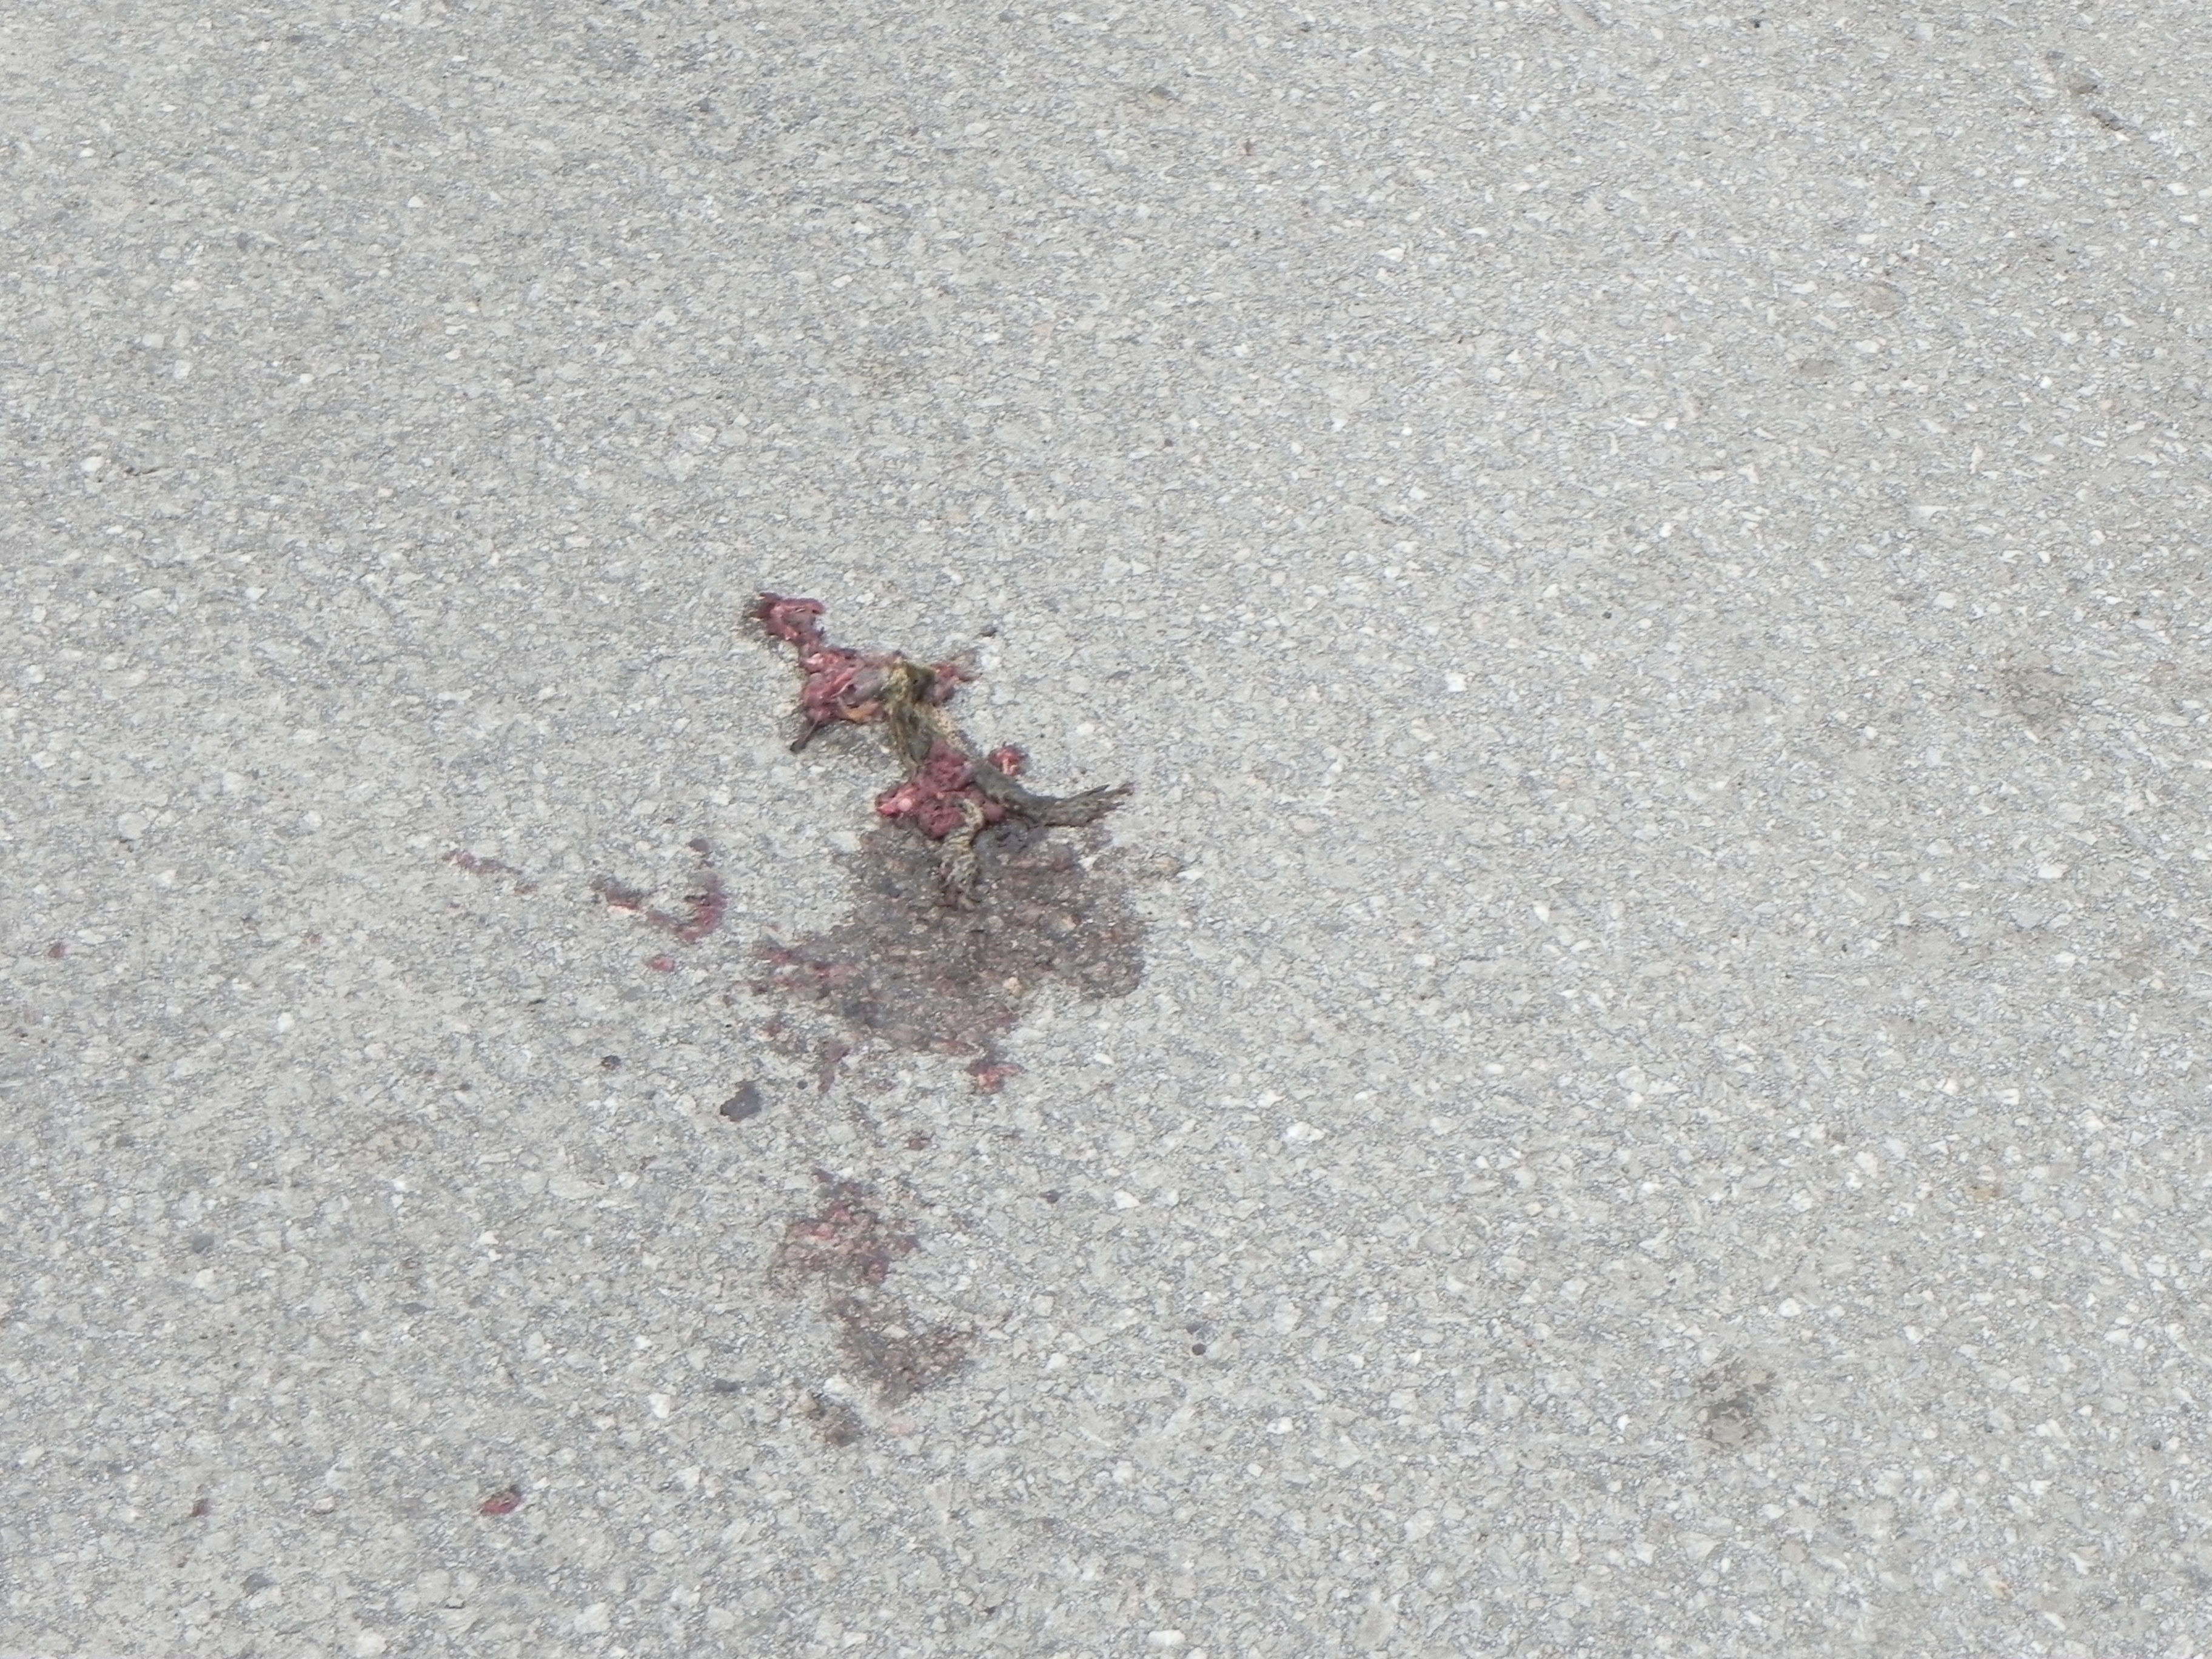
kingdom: Animalia
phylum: Chordata
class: Amphibia
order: Anura
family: Bufonidae
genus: Bufo
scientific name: Bufo bufo
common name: Common toad
